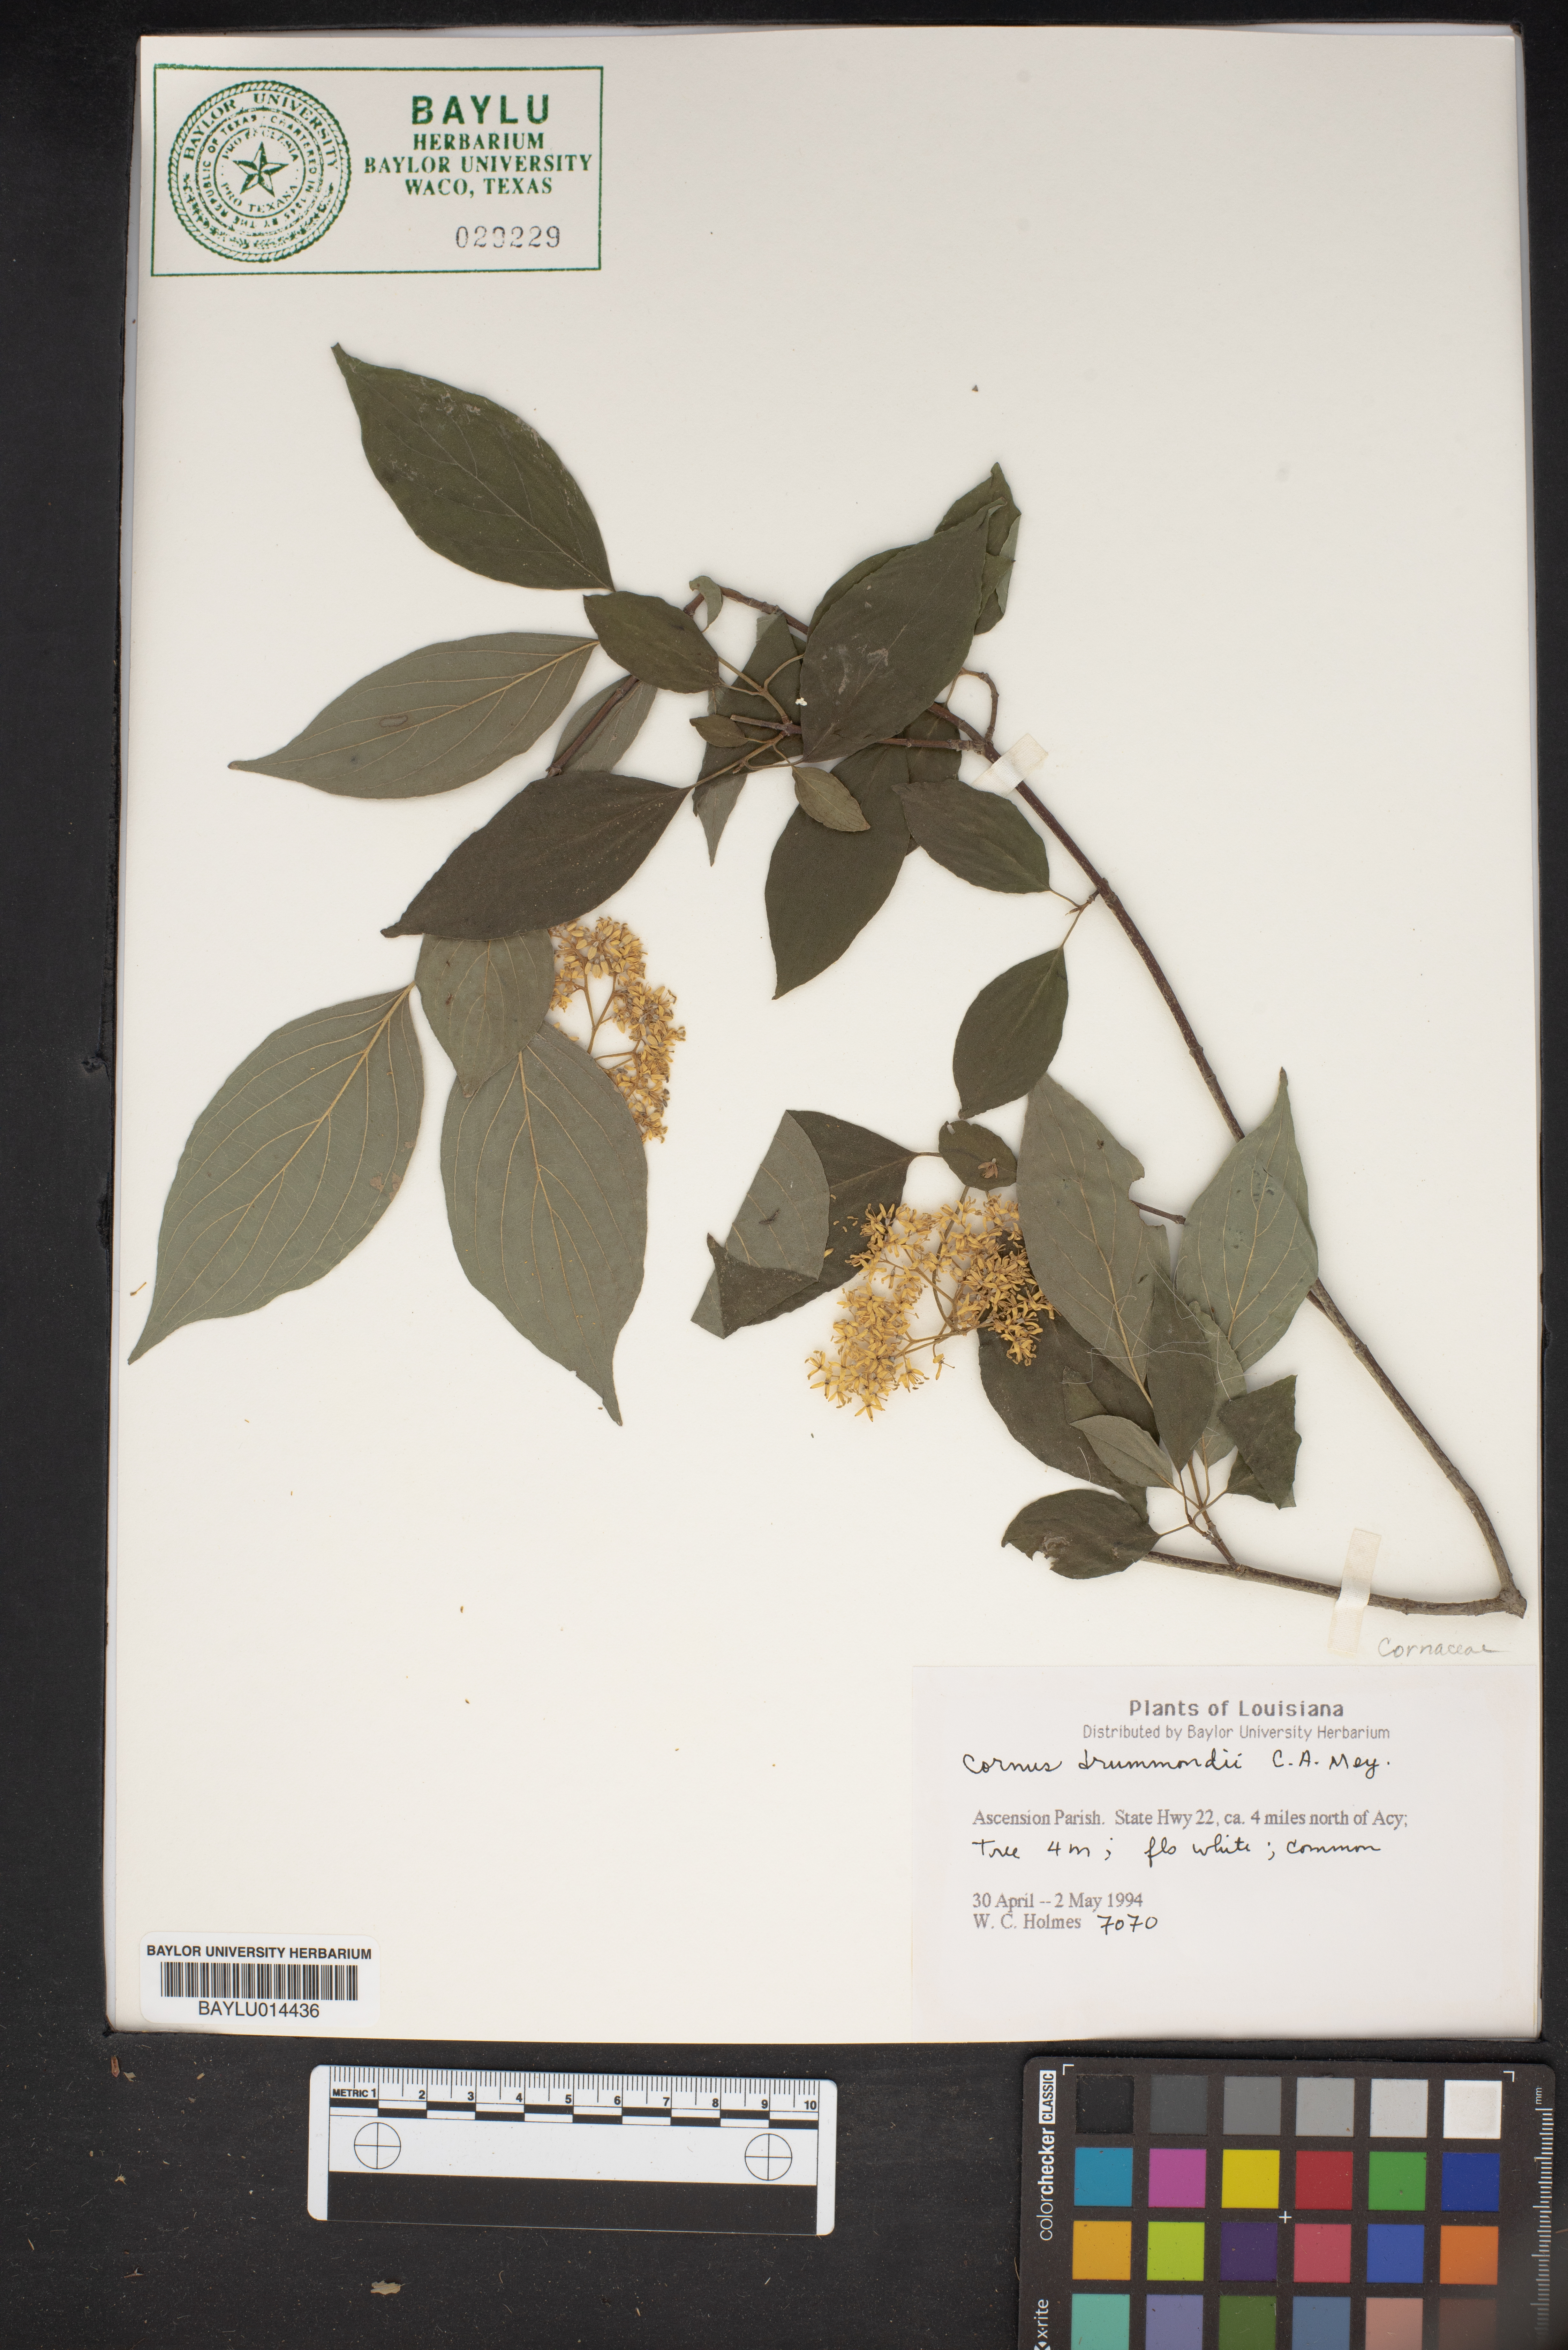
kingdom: Plantae
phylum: Tracheophyta
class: Magnoliopsida
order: Cornales
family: Cornaceae
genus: Cornus
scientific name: Cornus drummondii
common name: Rough-leaf dogwood
